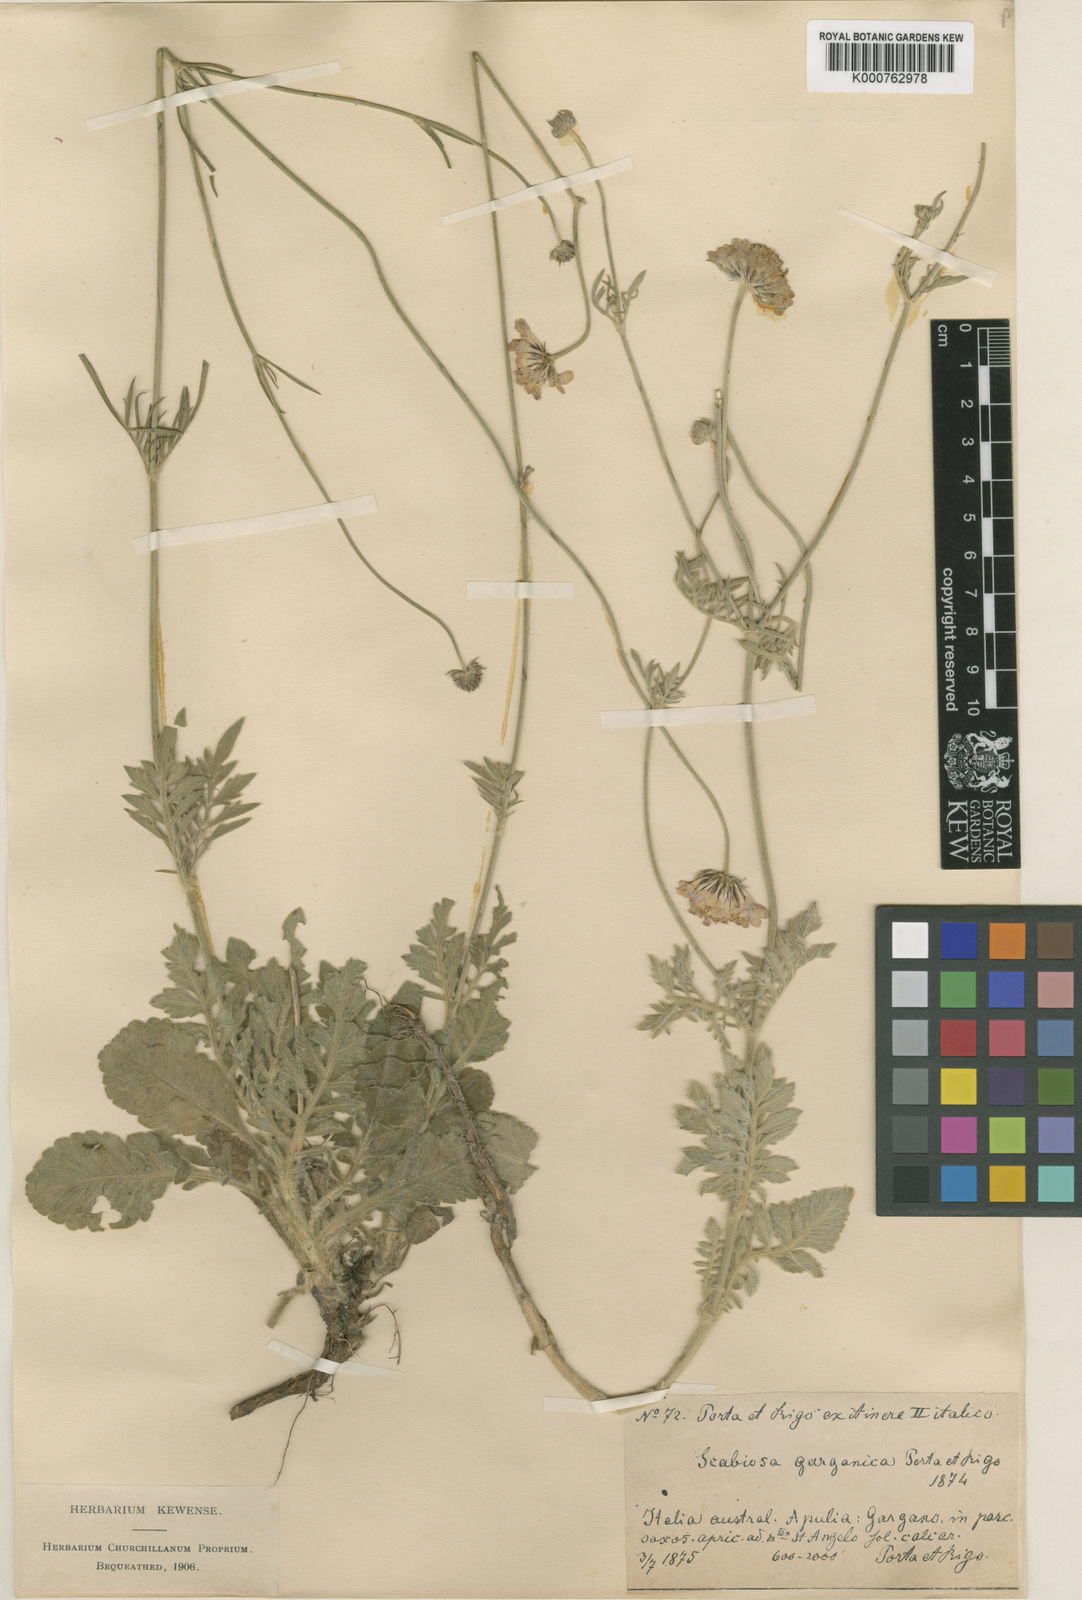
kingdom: Plantae
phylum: Tracheophyta
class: Magnoliopsida
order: Dipsacales
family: Caprifoliaceae
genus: Scabiosa
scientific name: Scabiosa holosericea
